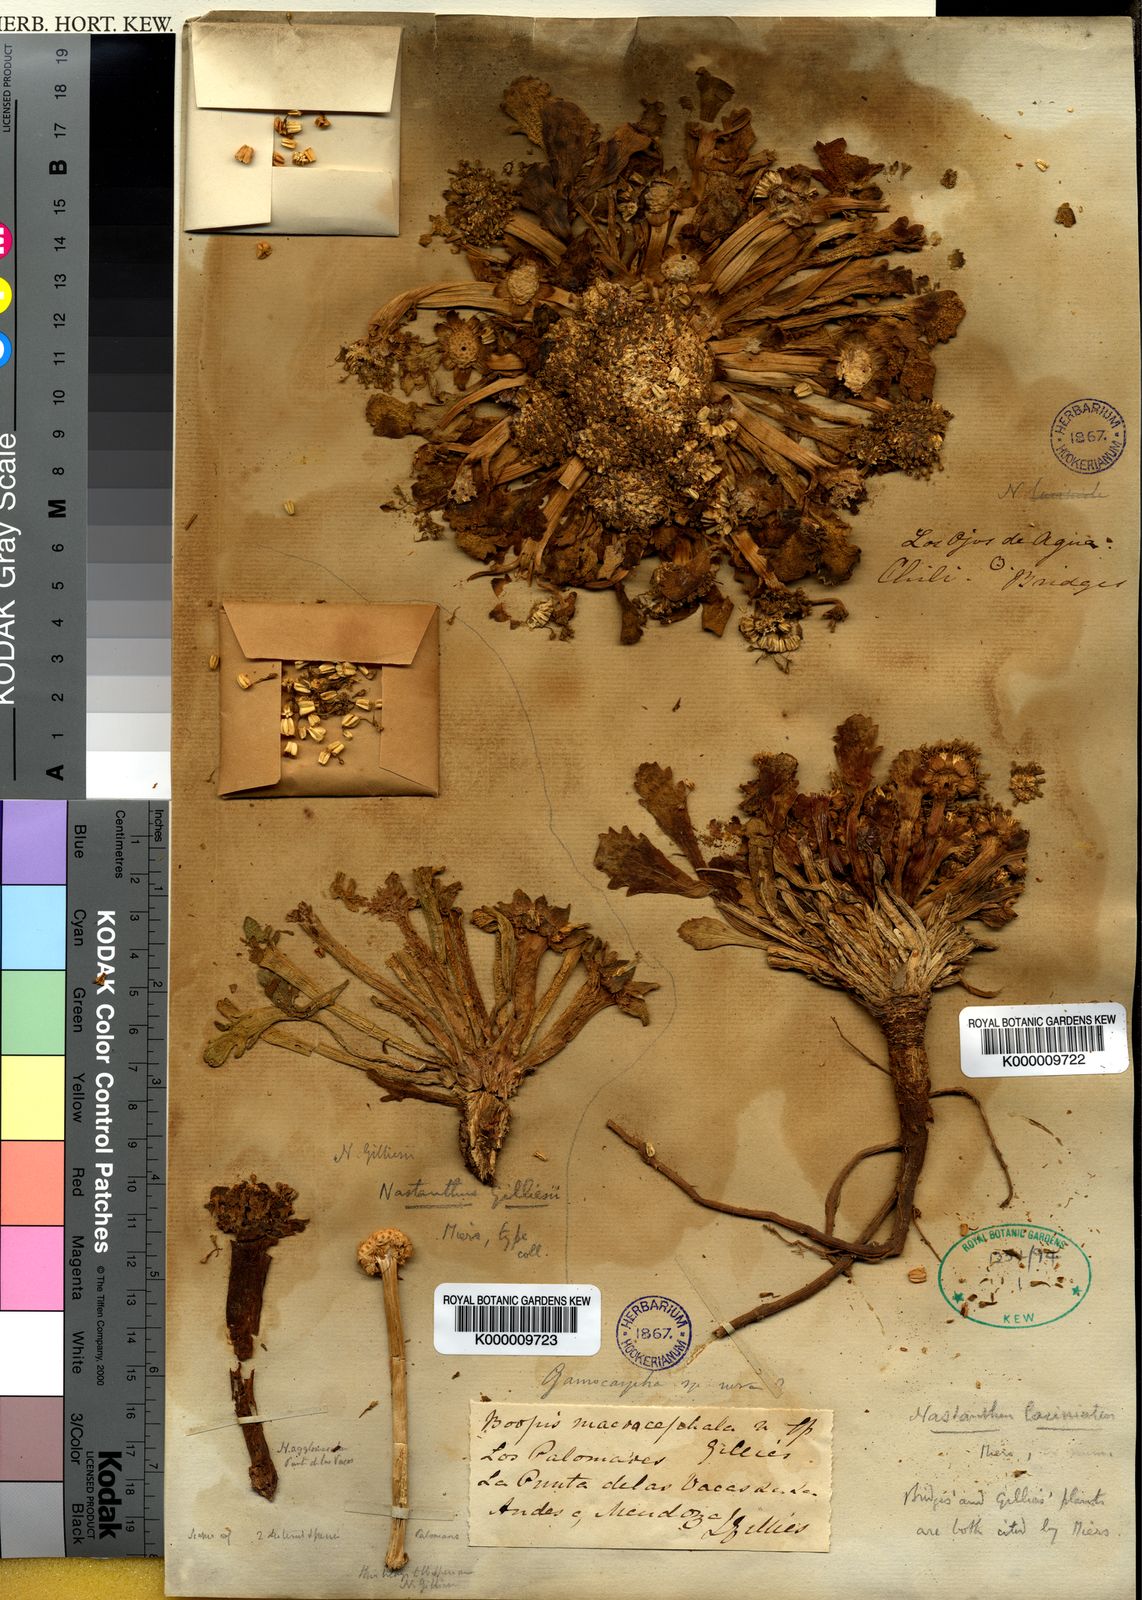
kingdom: Plantae
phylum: Tracheophyta
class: Magnoliopsida
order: Asterales
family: Calyceraceae
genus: Boopis
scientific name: Boopis
